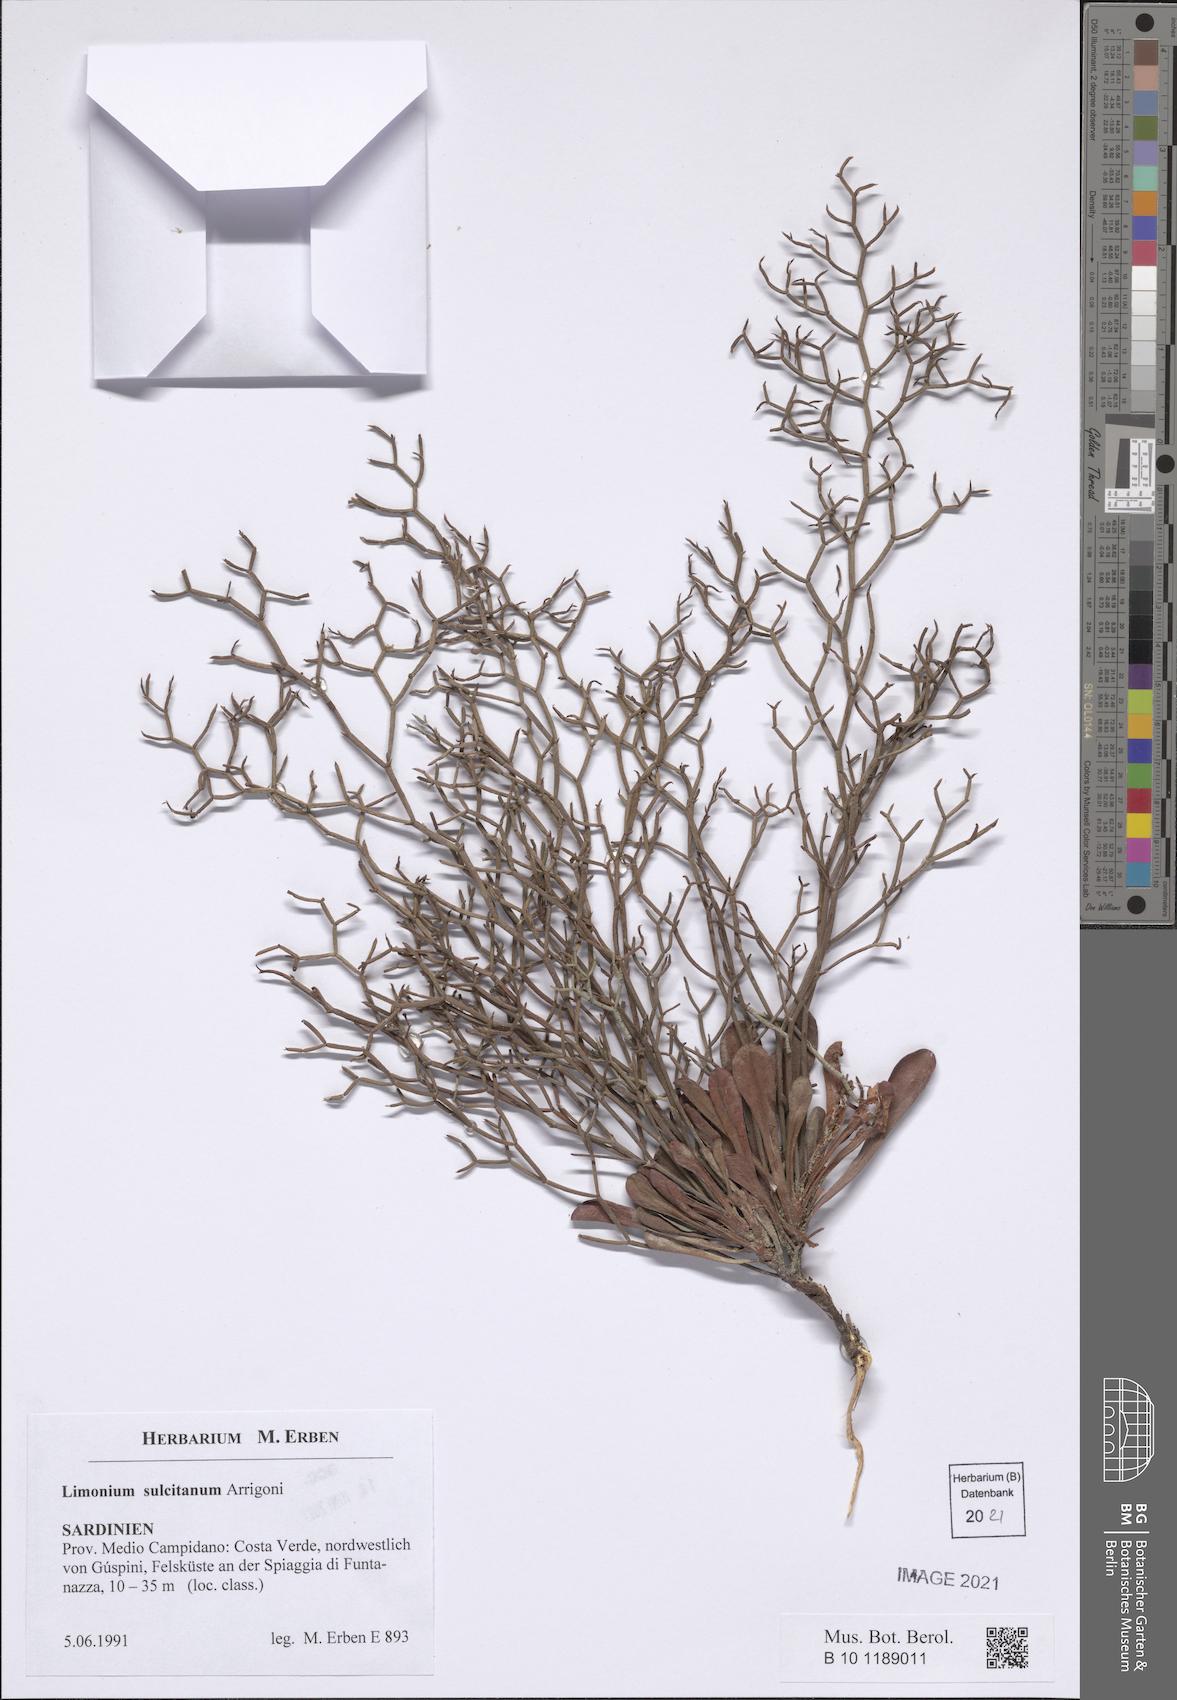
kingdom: Plantae
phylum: Tracheophyta
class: Magnoliopsida
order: Caryophyllales
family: Plumbaginaceae
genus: Limonium
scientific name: Limonium sulcitanum
